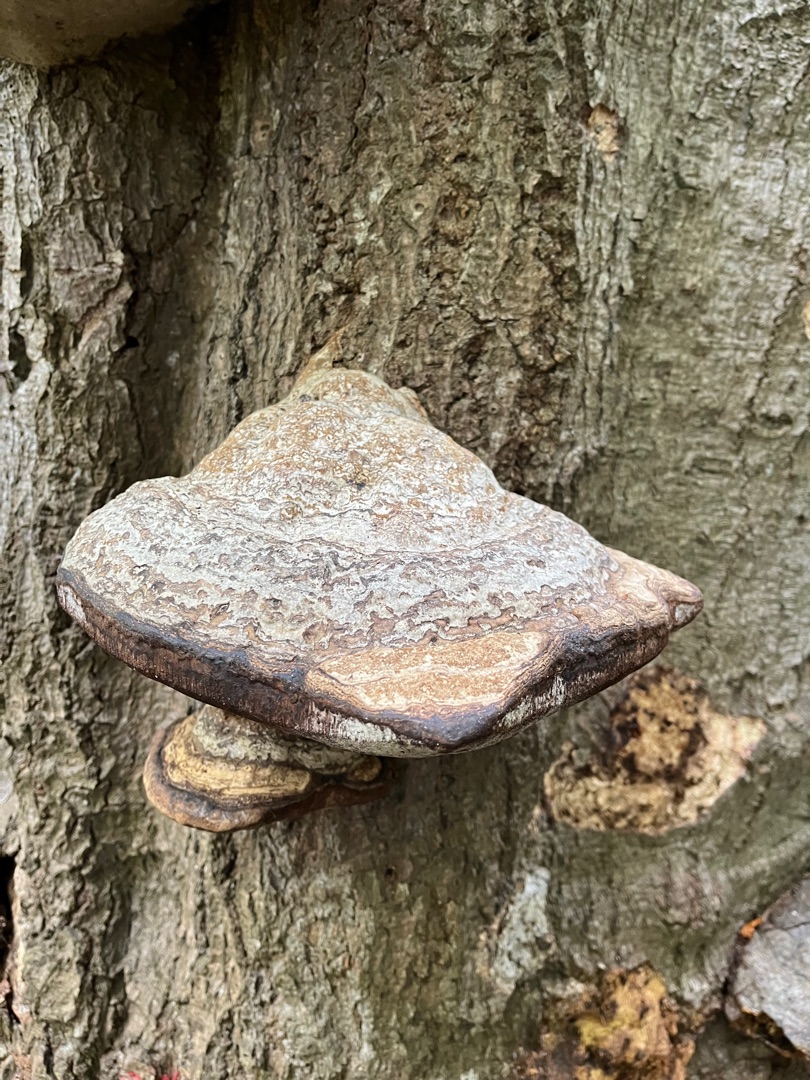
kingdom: Fungi
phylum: Basidiomycota
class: Agaricomycetes
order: Polyporales
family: Polyporaceae
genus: Fomes
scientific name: Fomes fomentarius
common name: Tøndersvamp
